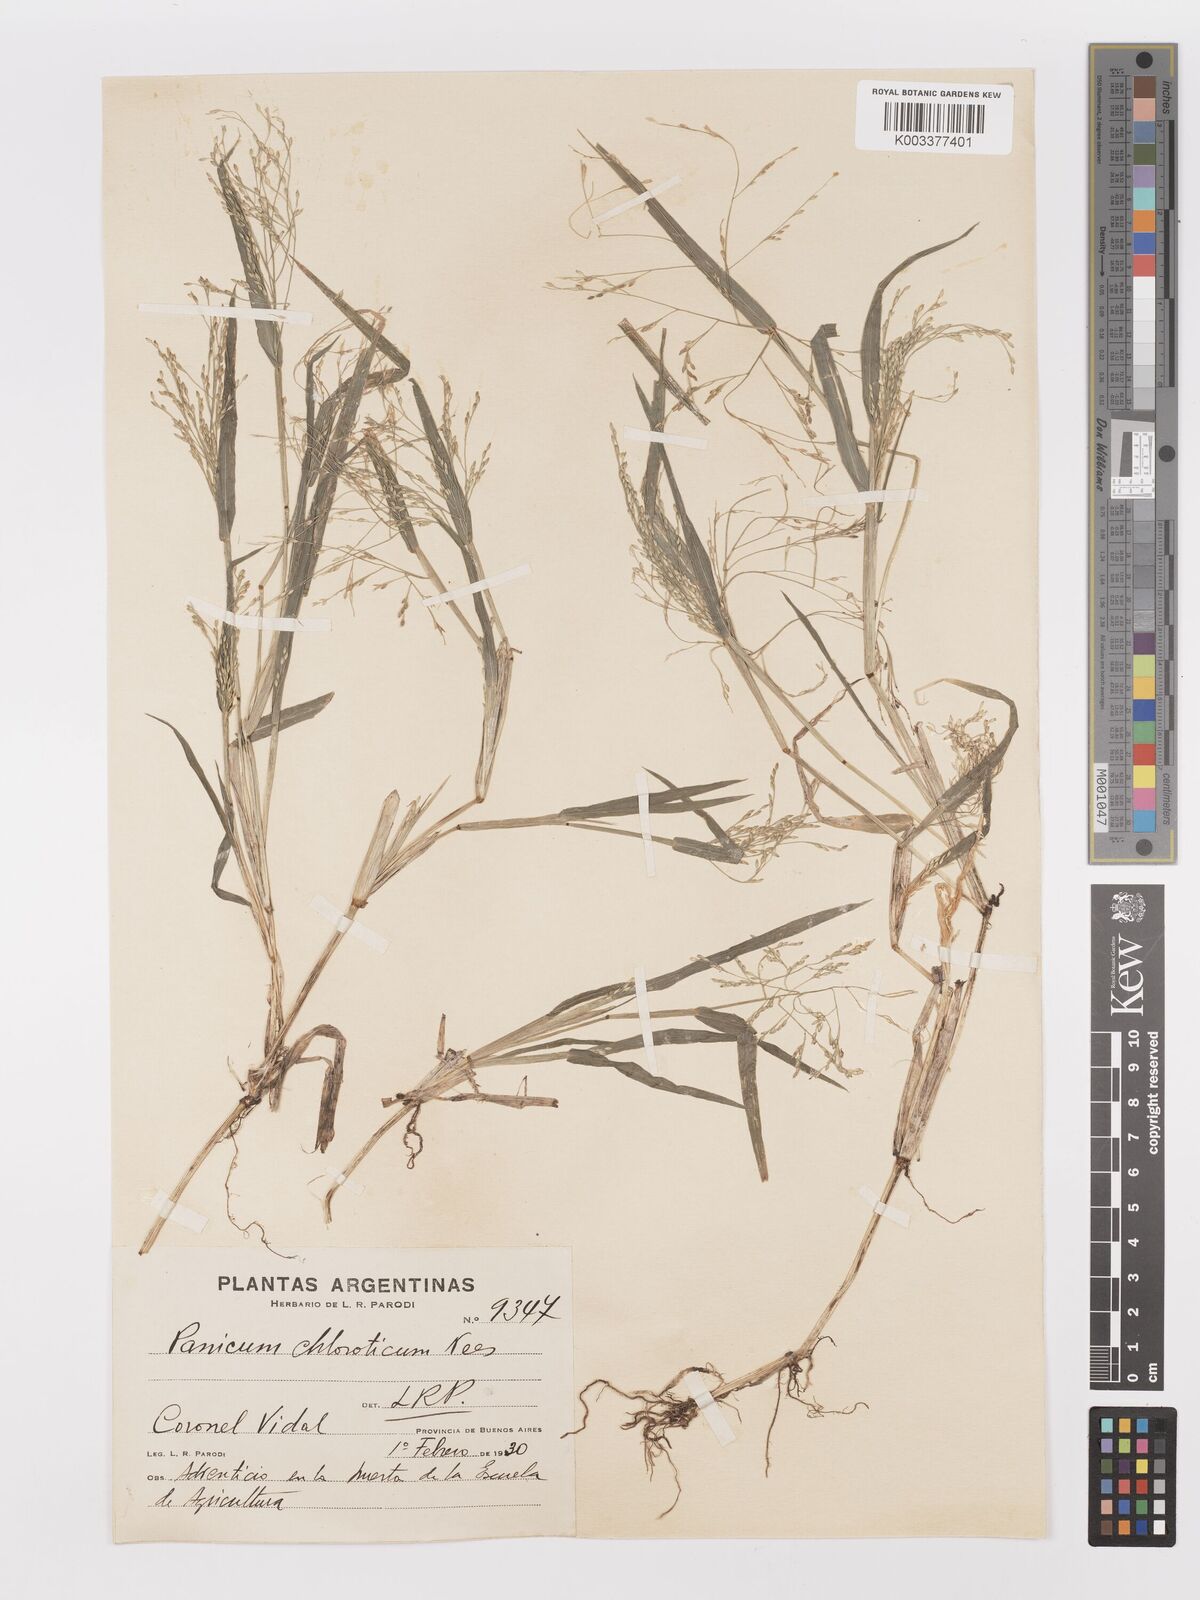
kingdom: Plantae
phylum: Tracheophyta
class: Liliopsida
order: Poales
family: Poaceae
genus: Panicum
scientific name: Panicum dichotomiflorum
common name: Autumn millet
